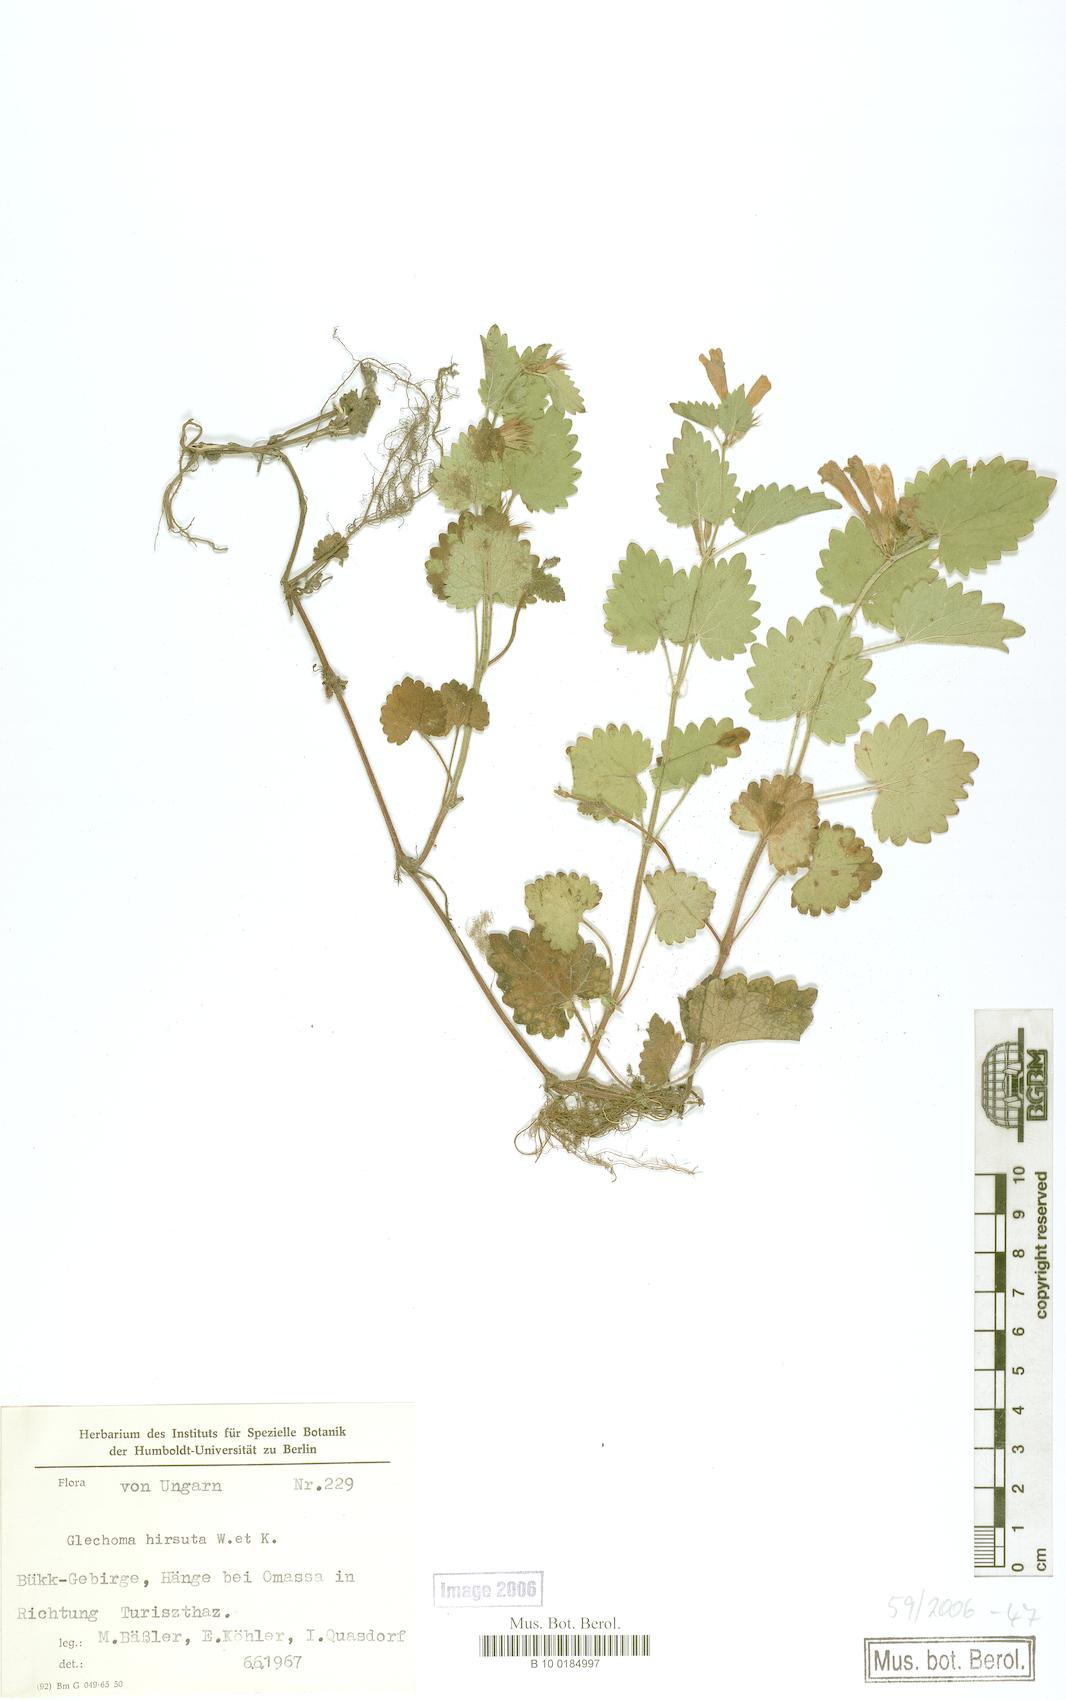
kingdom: Plantae
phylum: Tracheophyta
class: Magnoliopsida
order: Lamiales
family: Lamiaceae
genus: Glechoma
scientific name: Glechoma hirsuta
